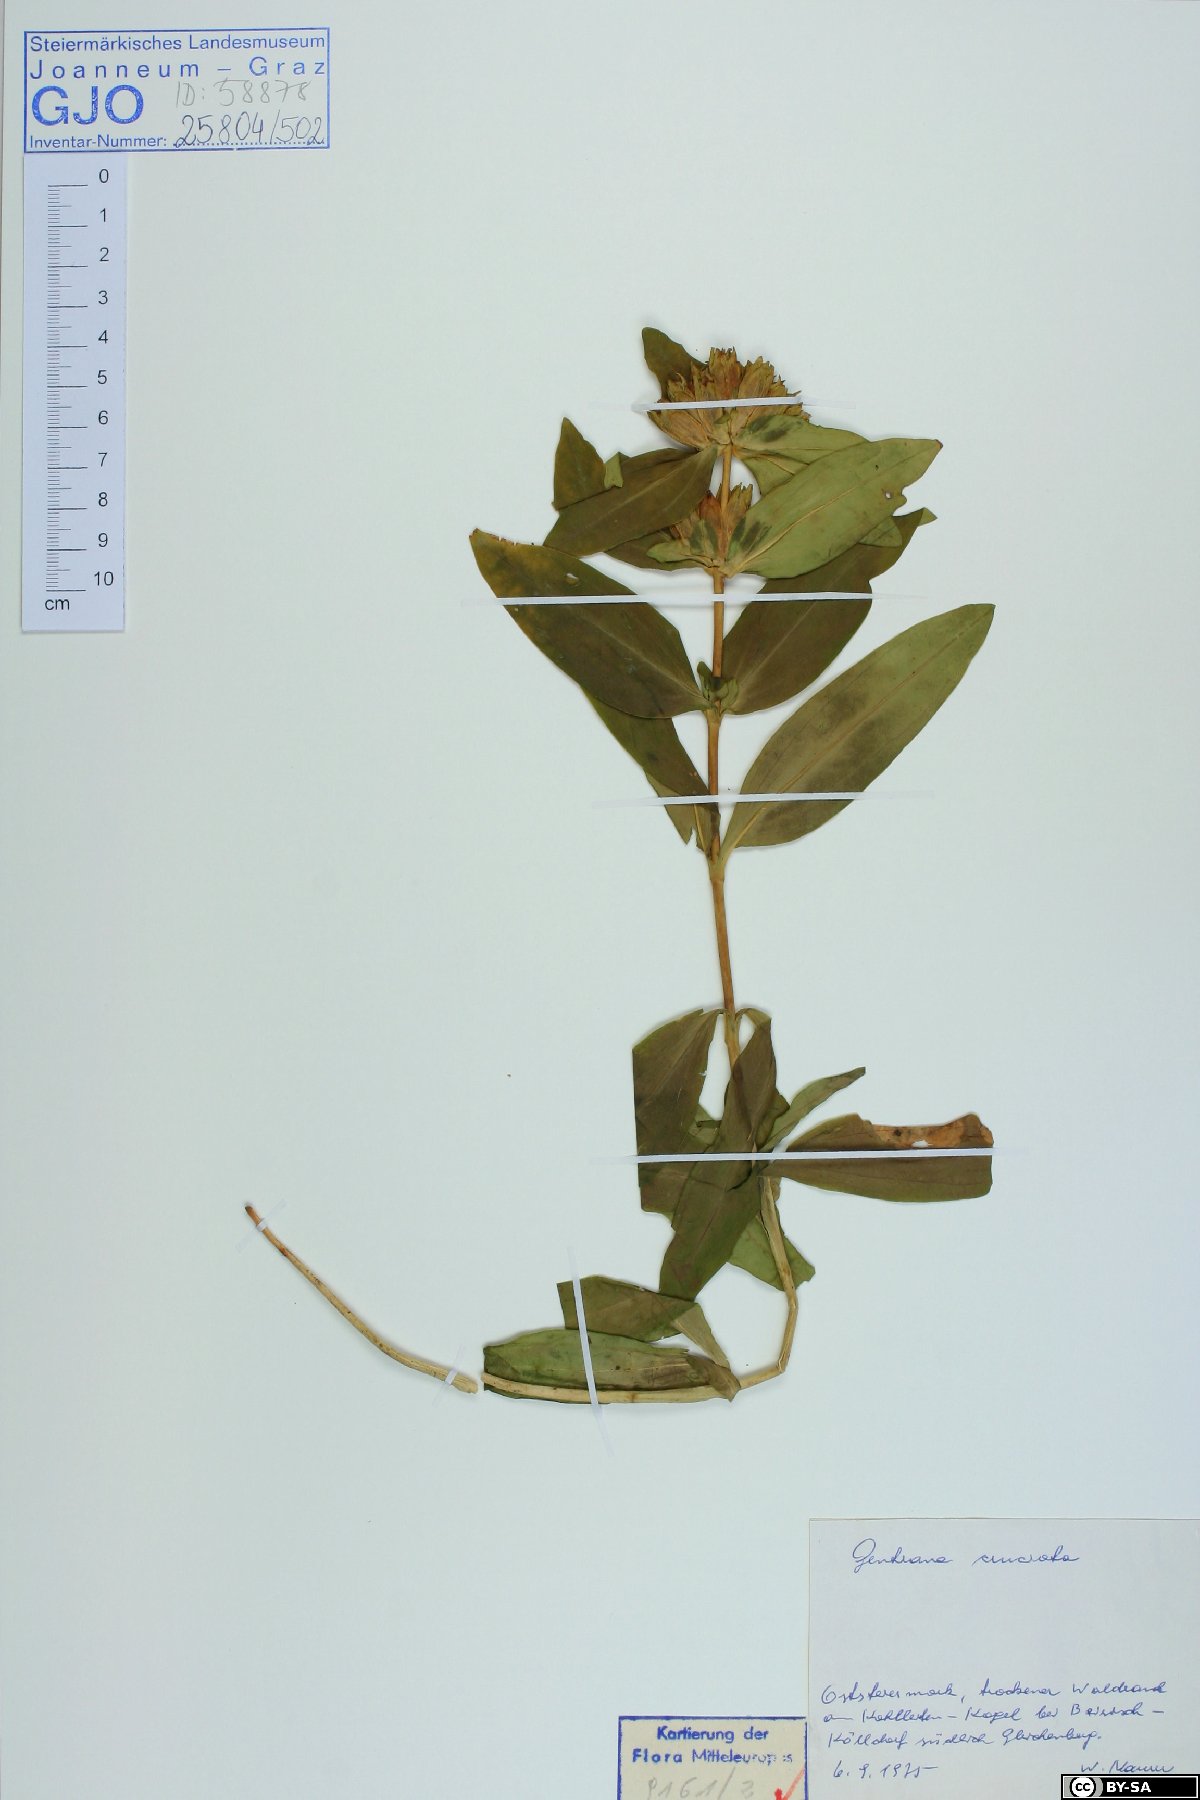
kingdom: Plantae
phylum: Tracheophyta
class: Magnoliopsida
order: Gentianales
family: Gentianaceae
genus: Gentiana
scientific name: Gentiana cruciata
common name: Cross gentian
